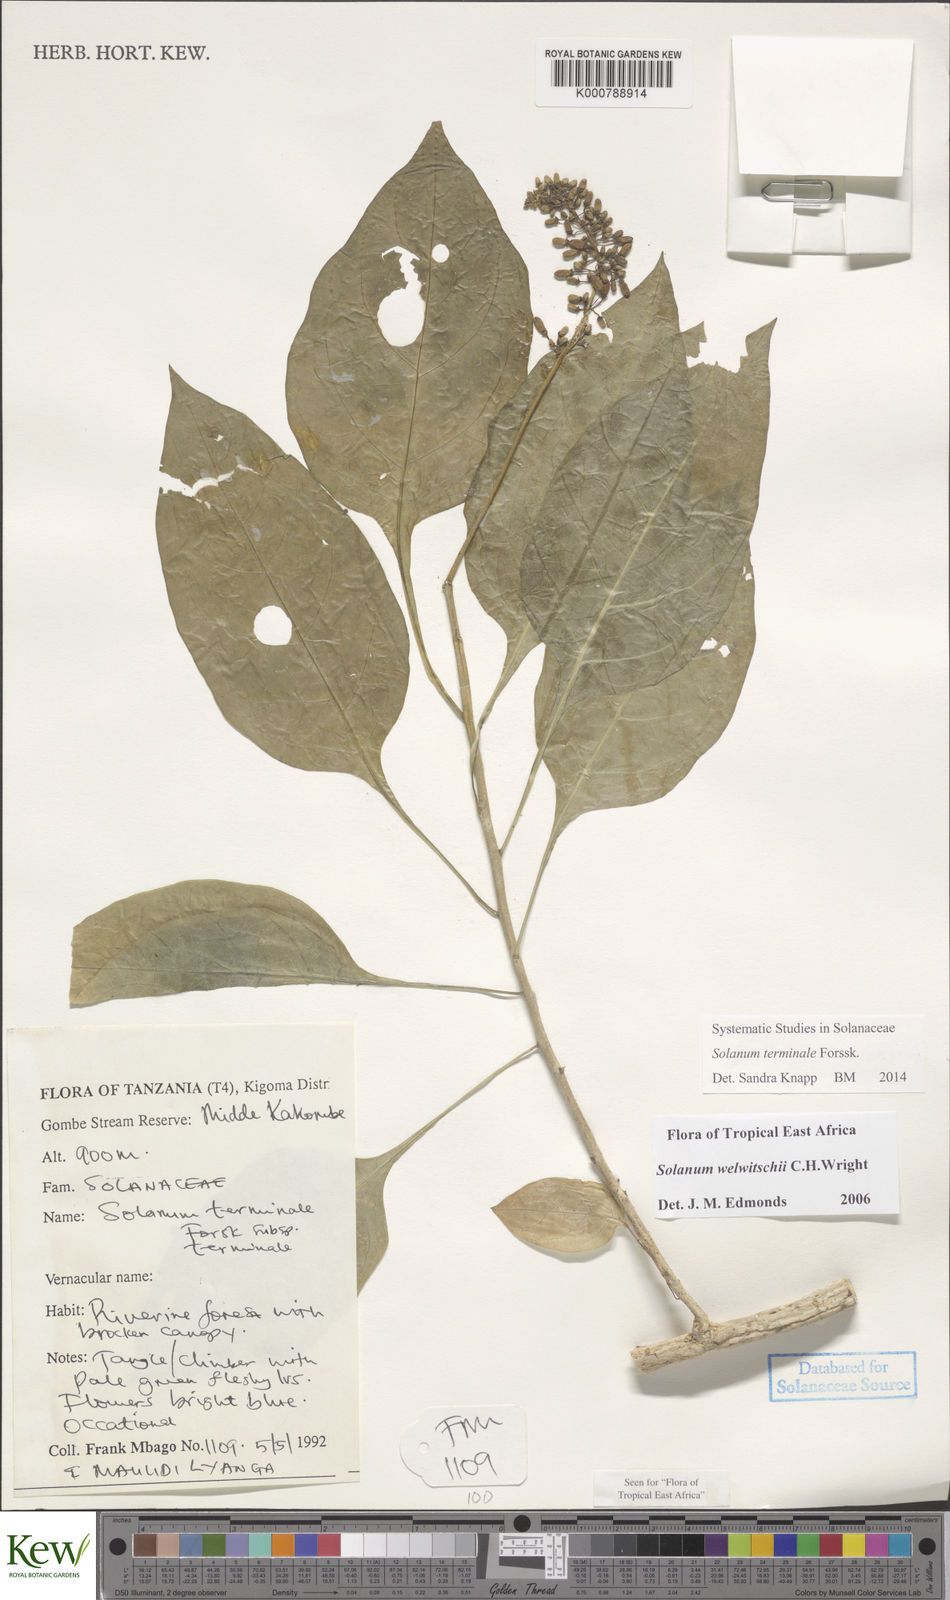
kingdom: Plantae
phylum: Tracheophyta
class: Magnoliopsida
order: Solanales
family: Solanaceae
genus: Solanum
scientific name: Solanum terminale
